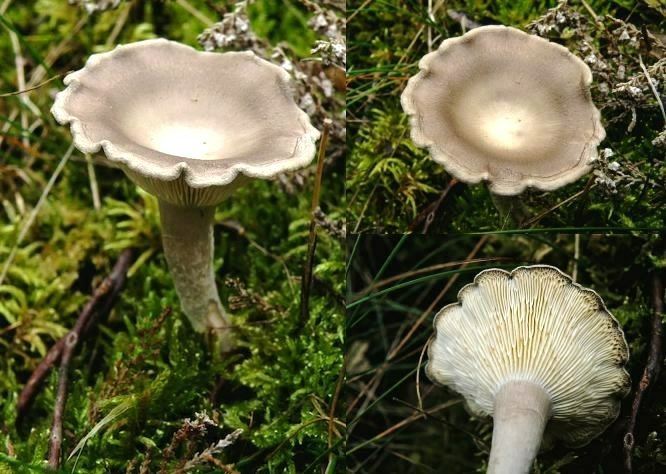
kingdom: Fungi
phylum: Basidiomycota
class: Agaricomycetes
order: Agaricales
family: Hygrophoraceae
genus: Cantharellula
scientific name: Cantharellula umbonata
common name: rødmende gaffelblad
